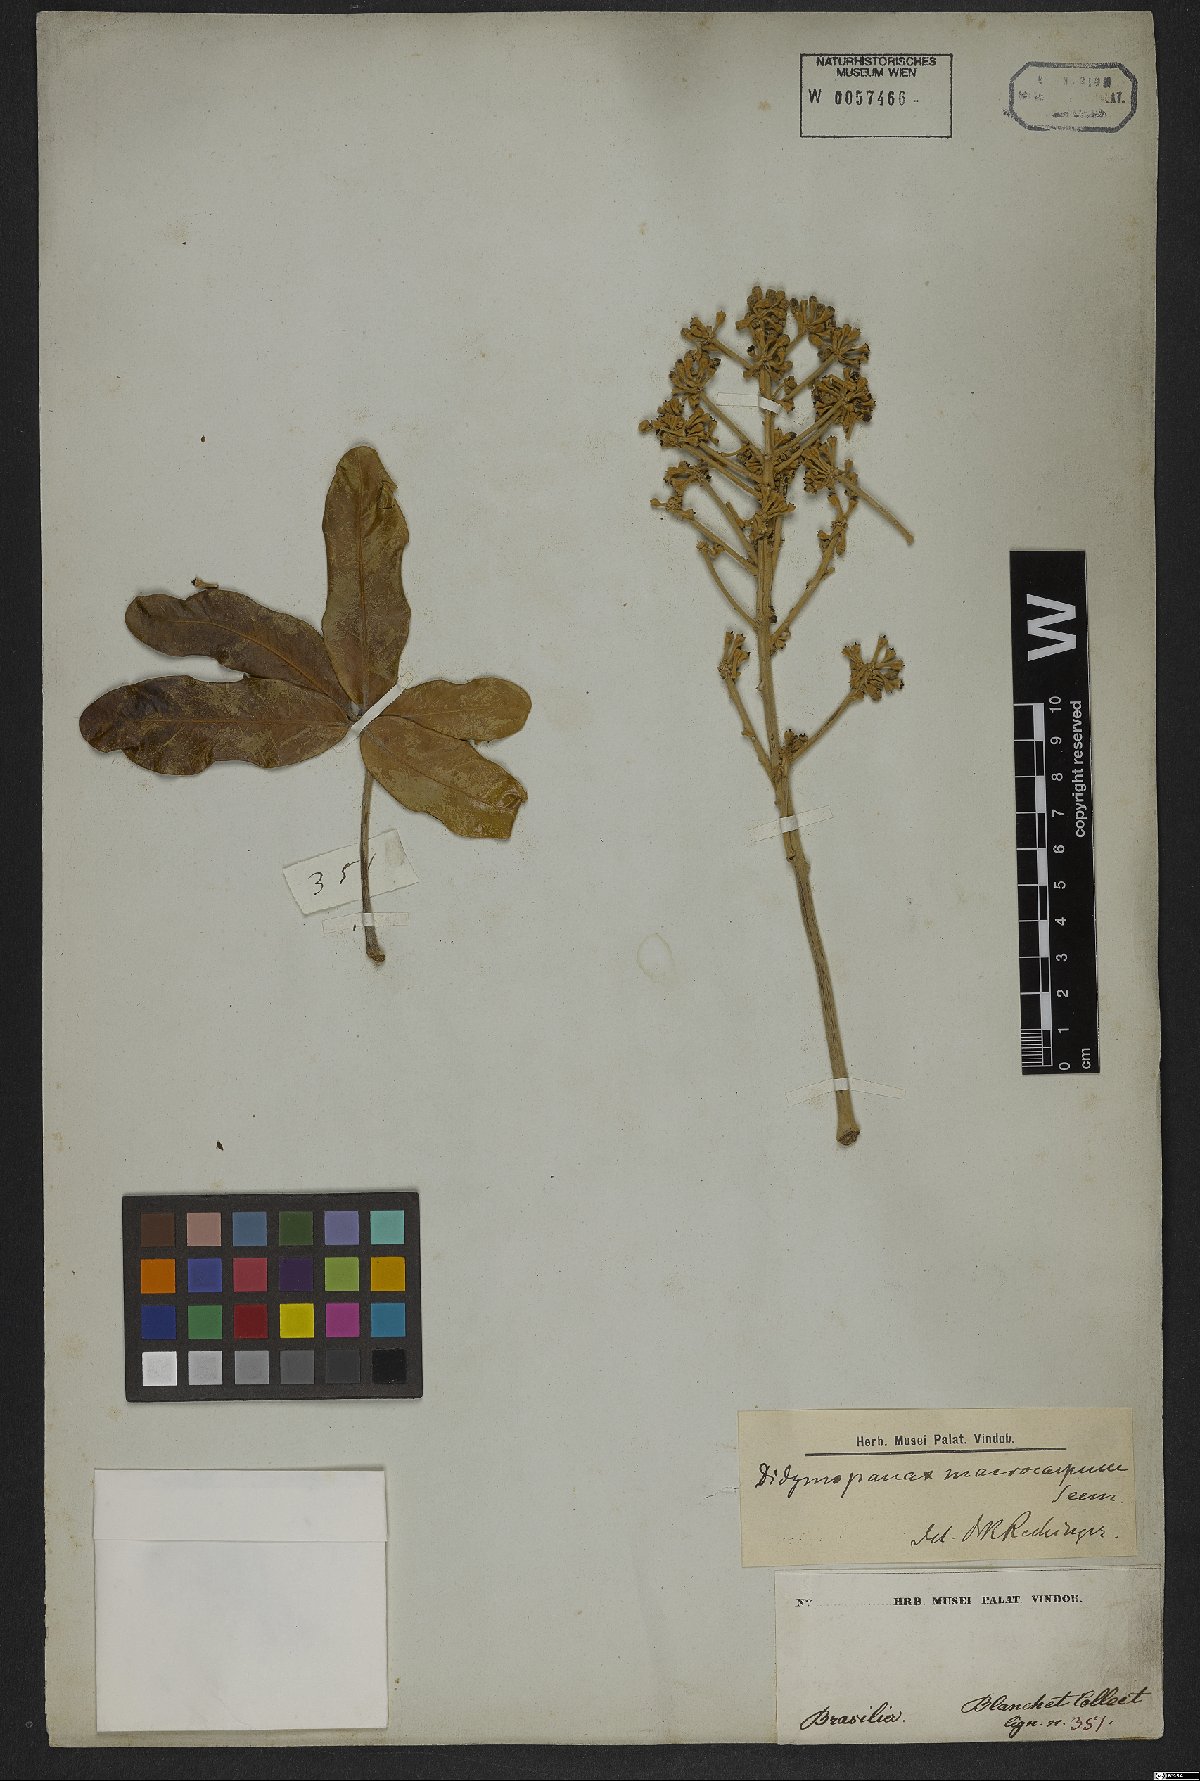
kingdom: Plantae
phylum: Tracheophyta
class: Magnoliopsida
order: Apiales
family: Araliaceae
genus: Didymopanax
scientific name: Didymopanax macrocarpus
